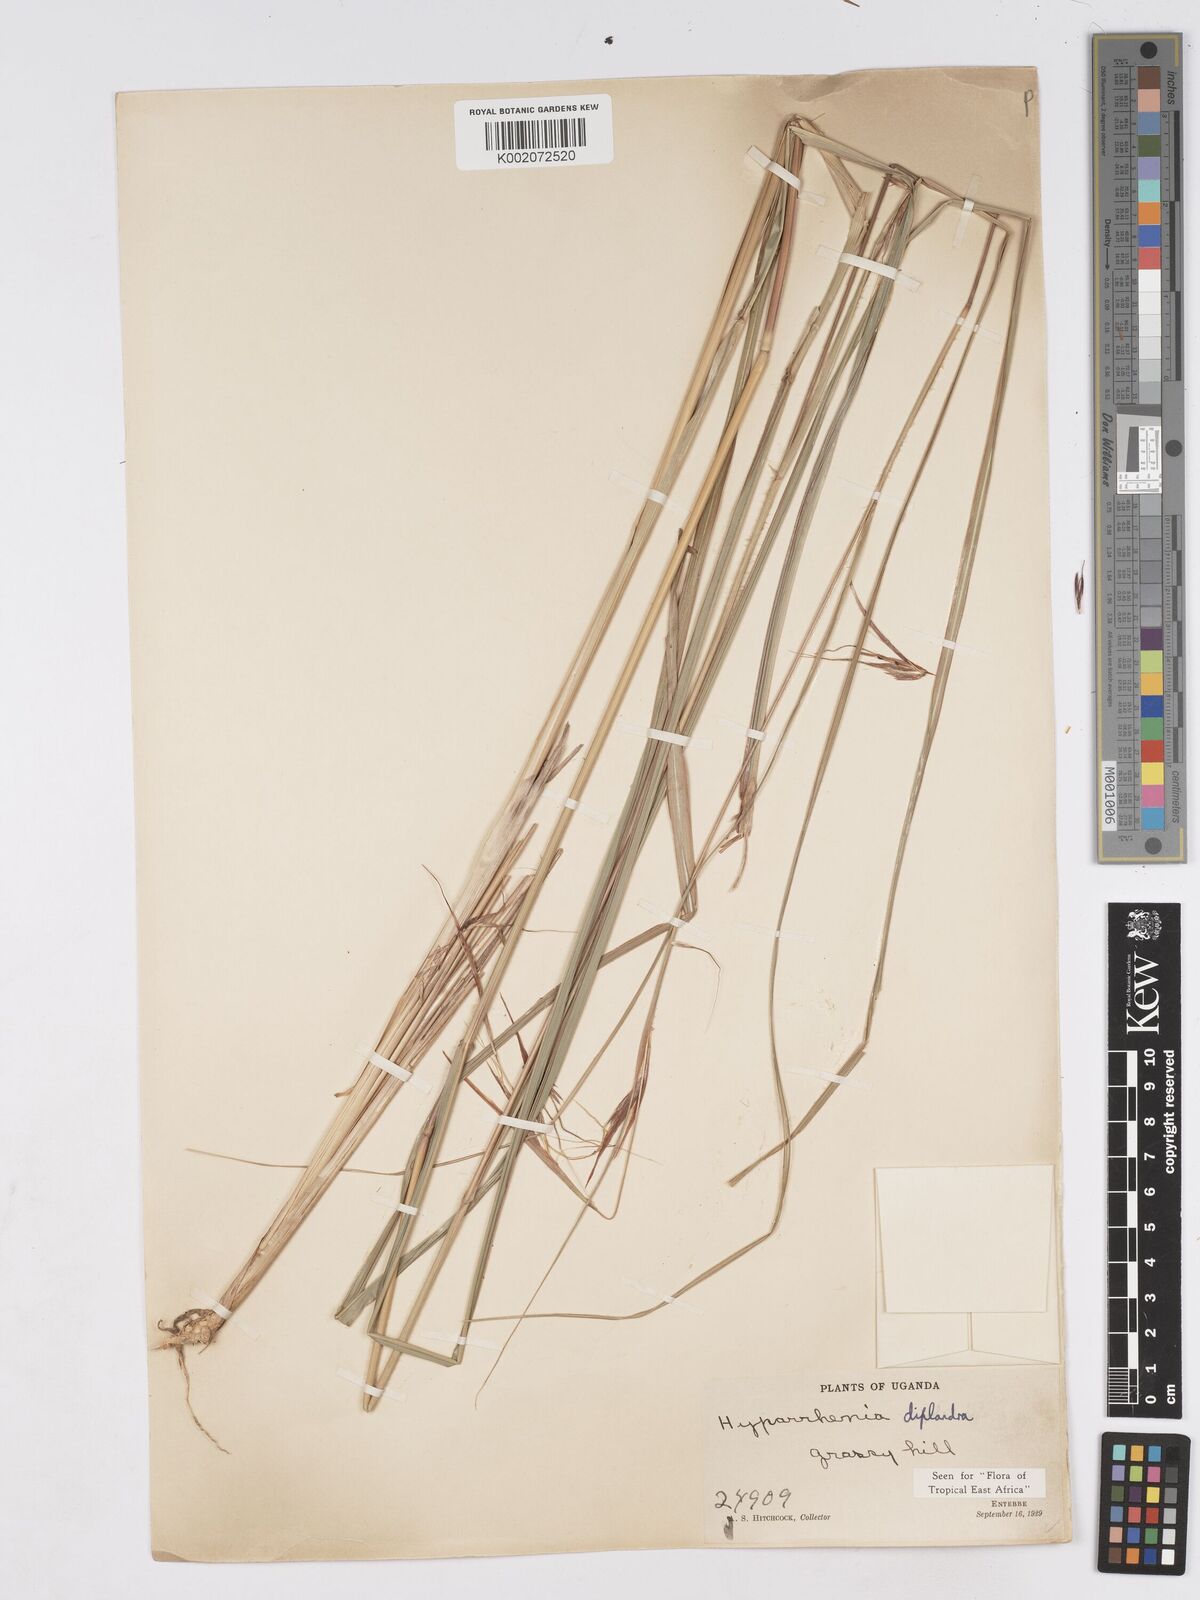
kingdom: Plantae
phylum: Tracheophyta
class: Liliopsida
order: Poales
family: Poaceae
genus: Hyparrhenia
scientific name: Hyparrhenia diplandra
